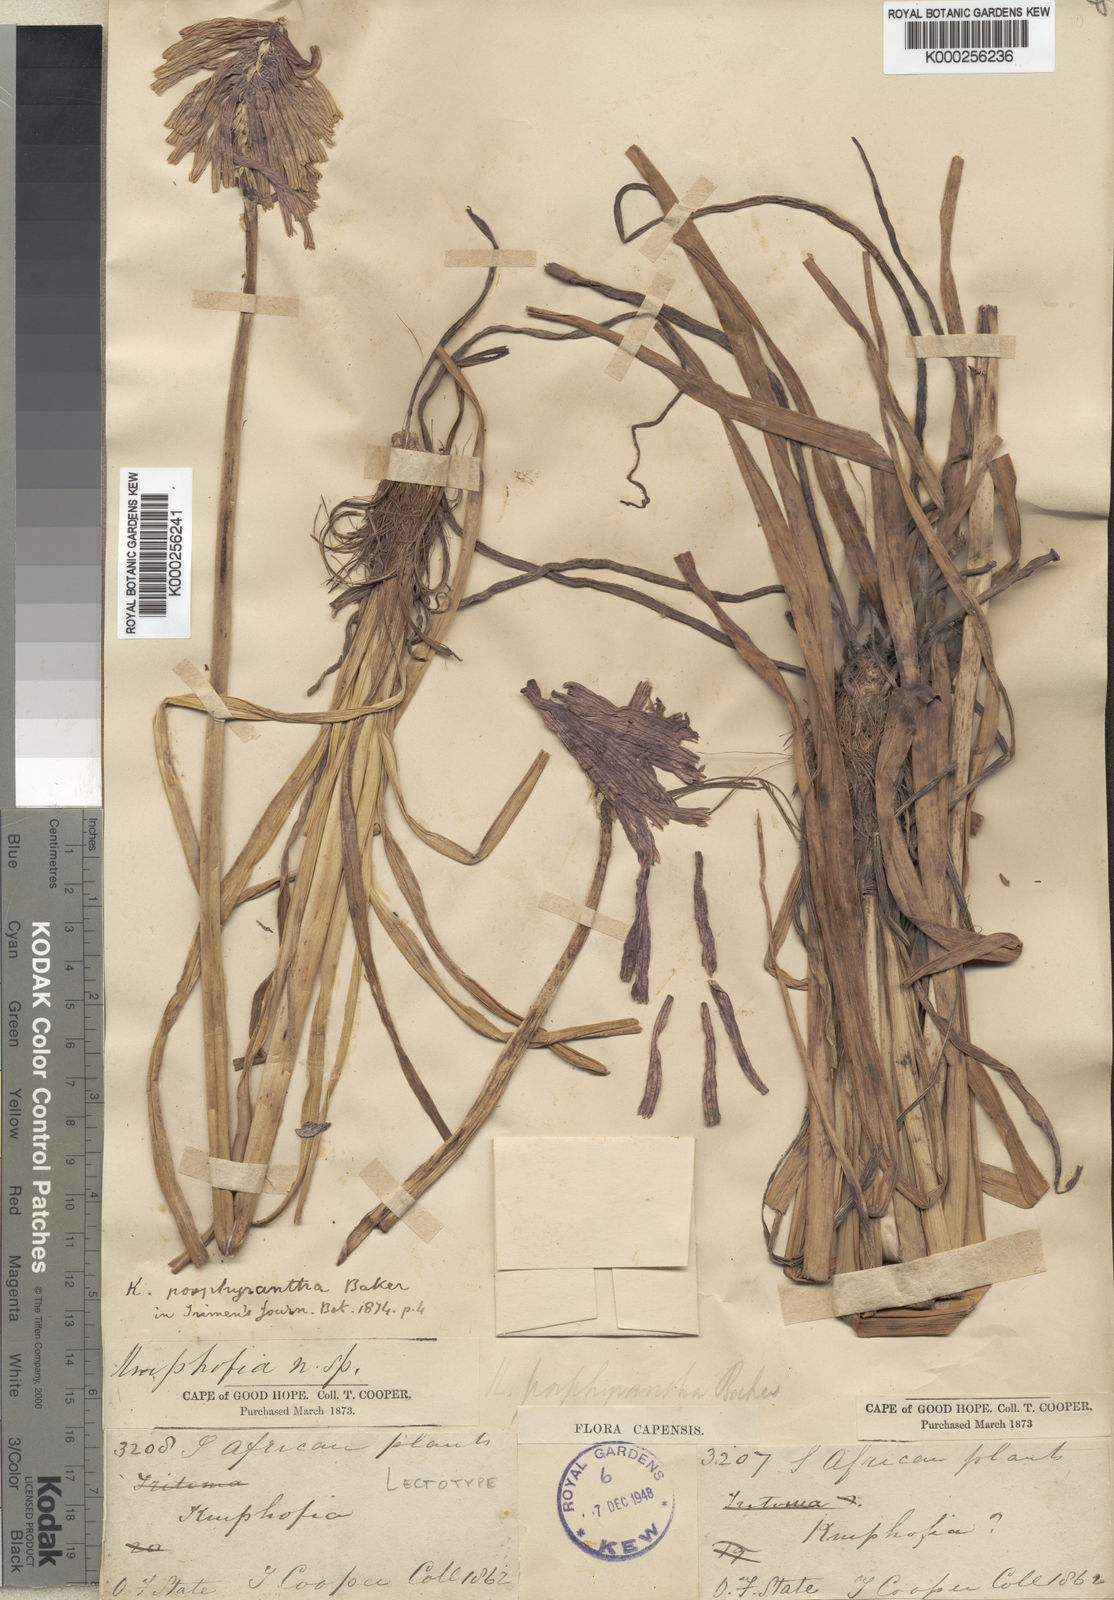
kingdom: Plantae
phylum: Tracheophyta
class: Liliopsida
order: Asparagales
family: Asphodelaceae
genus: Kniphofia
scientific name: Kniphofia porphyrantha
